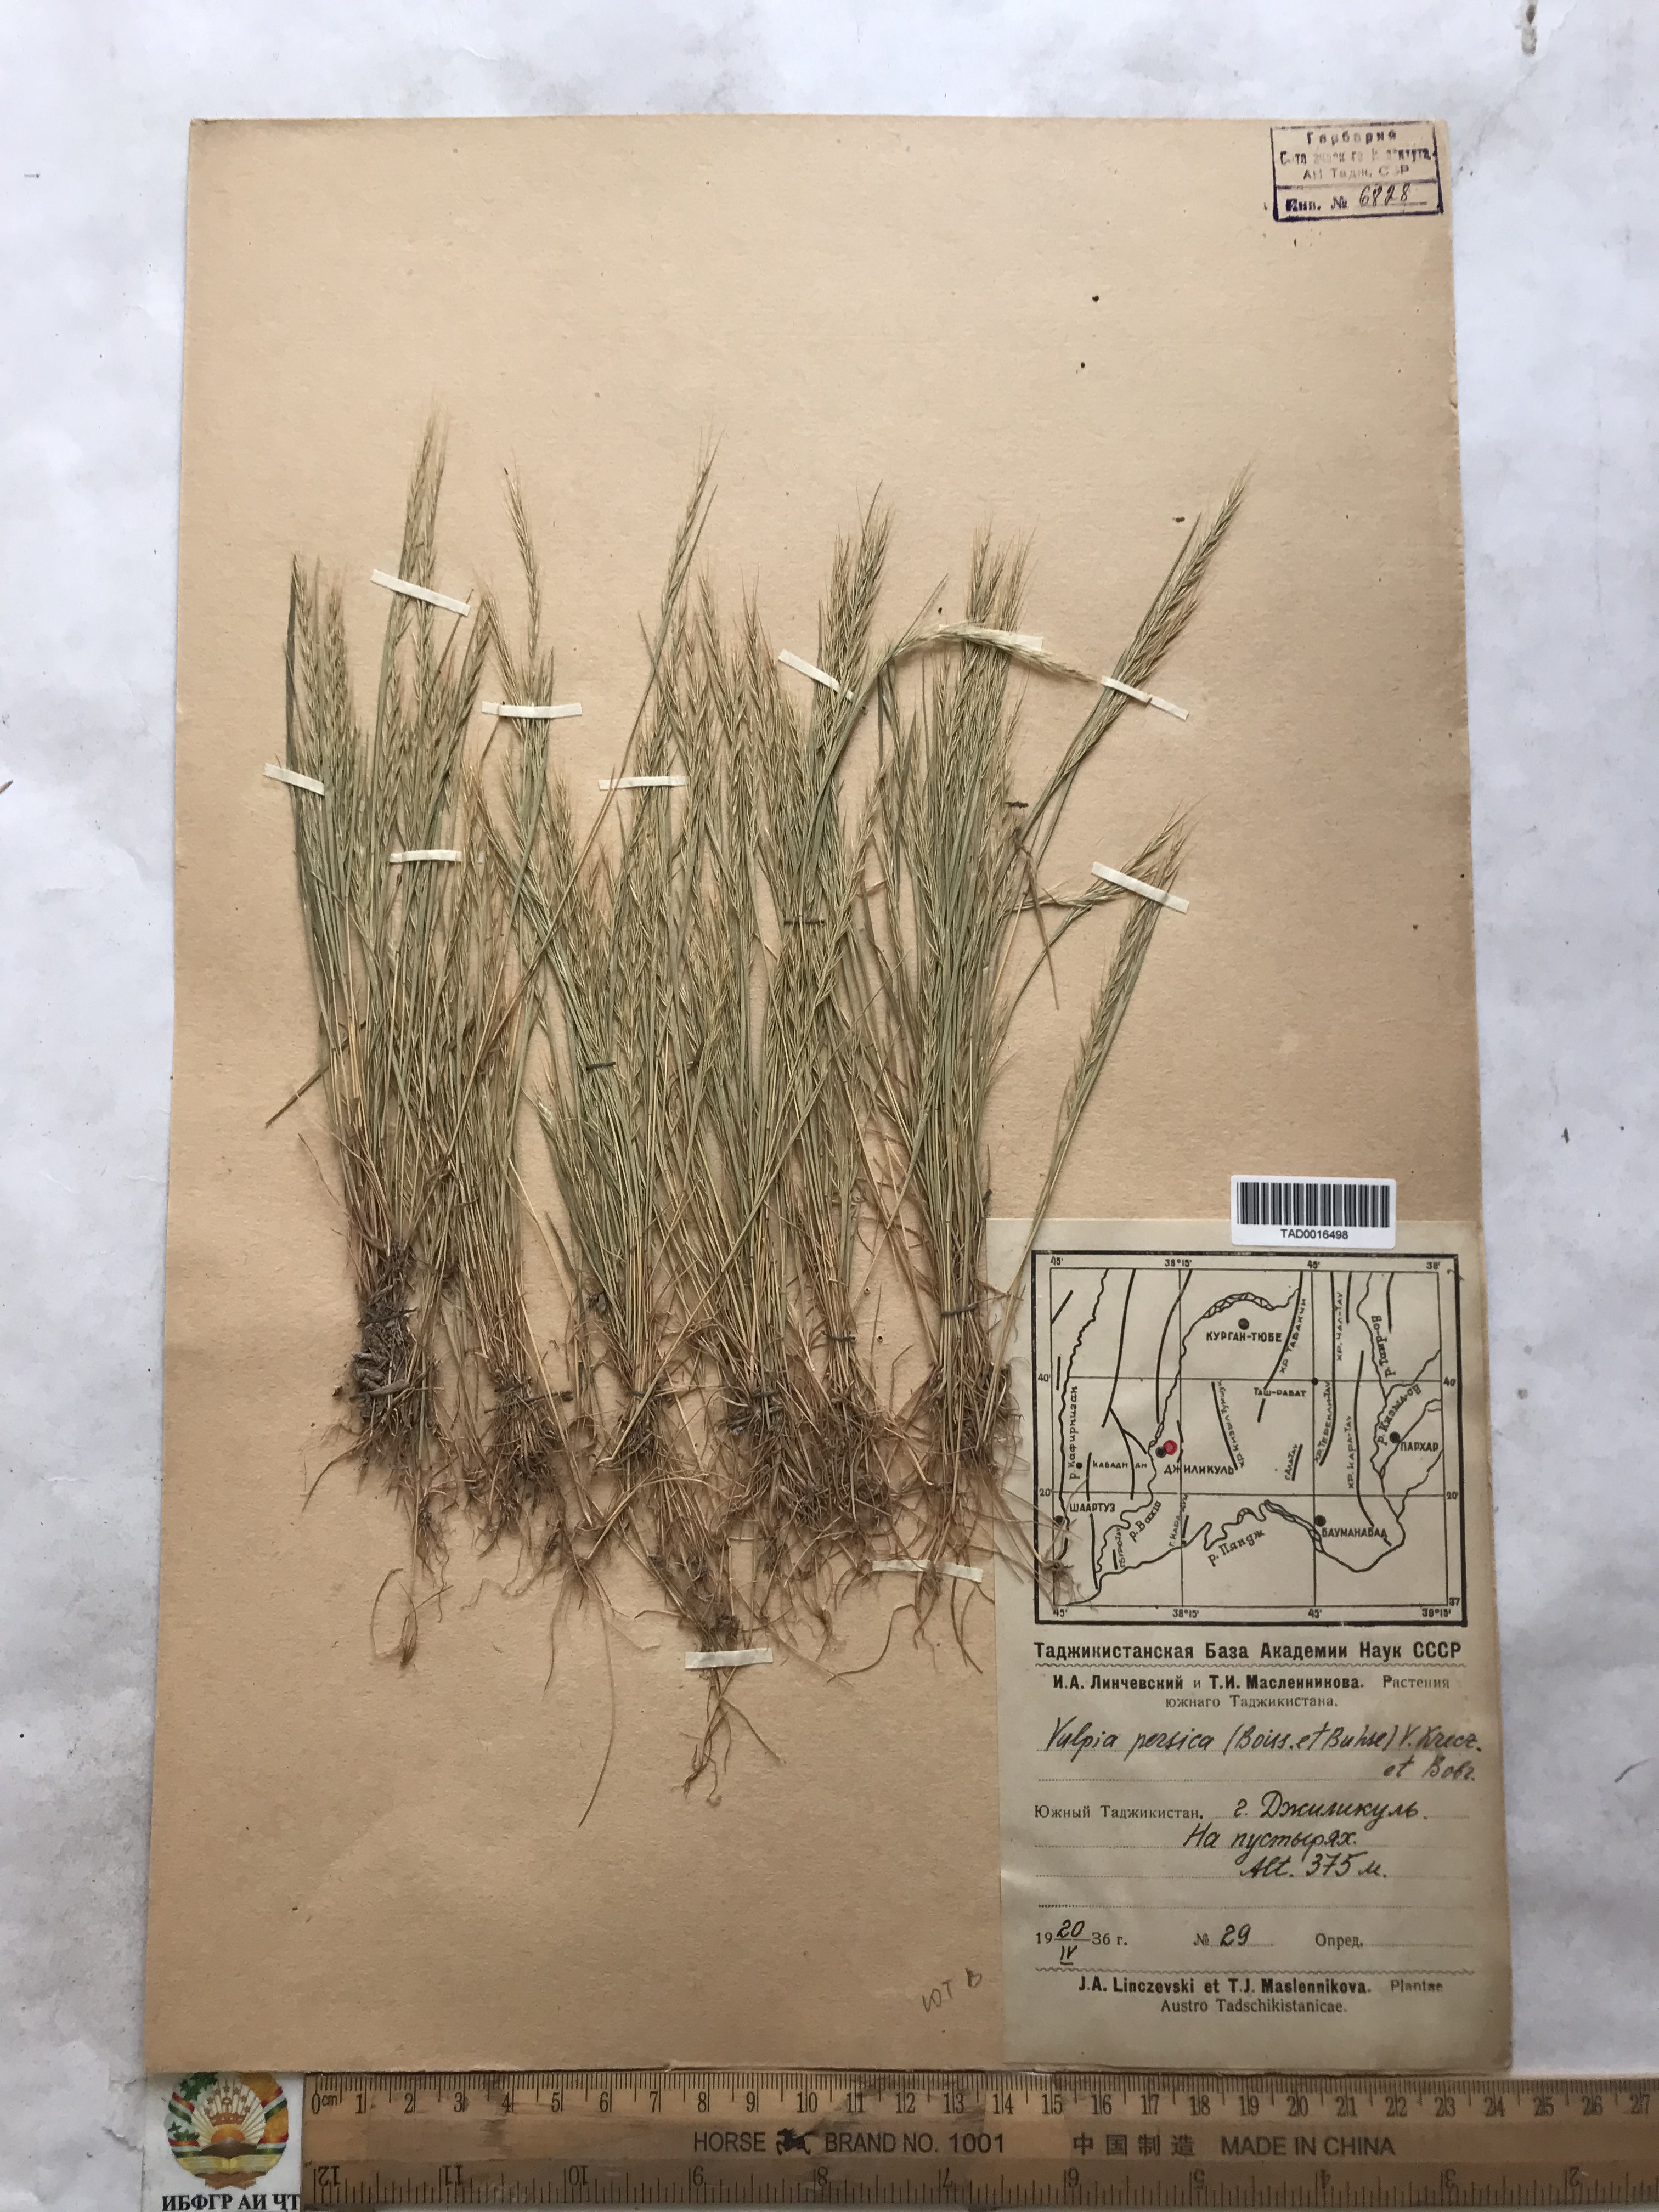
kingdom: Plantae
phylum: Tracheophyta
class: Liliopsida
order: Poales
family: Poaceae
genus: Festuca
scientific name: Festuca Vulpia persica
